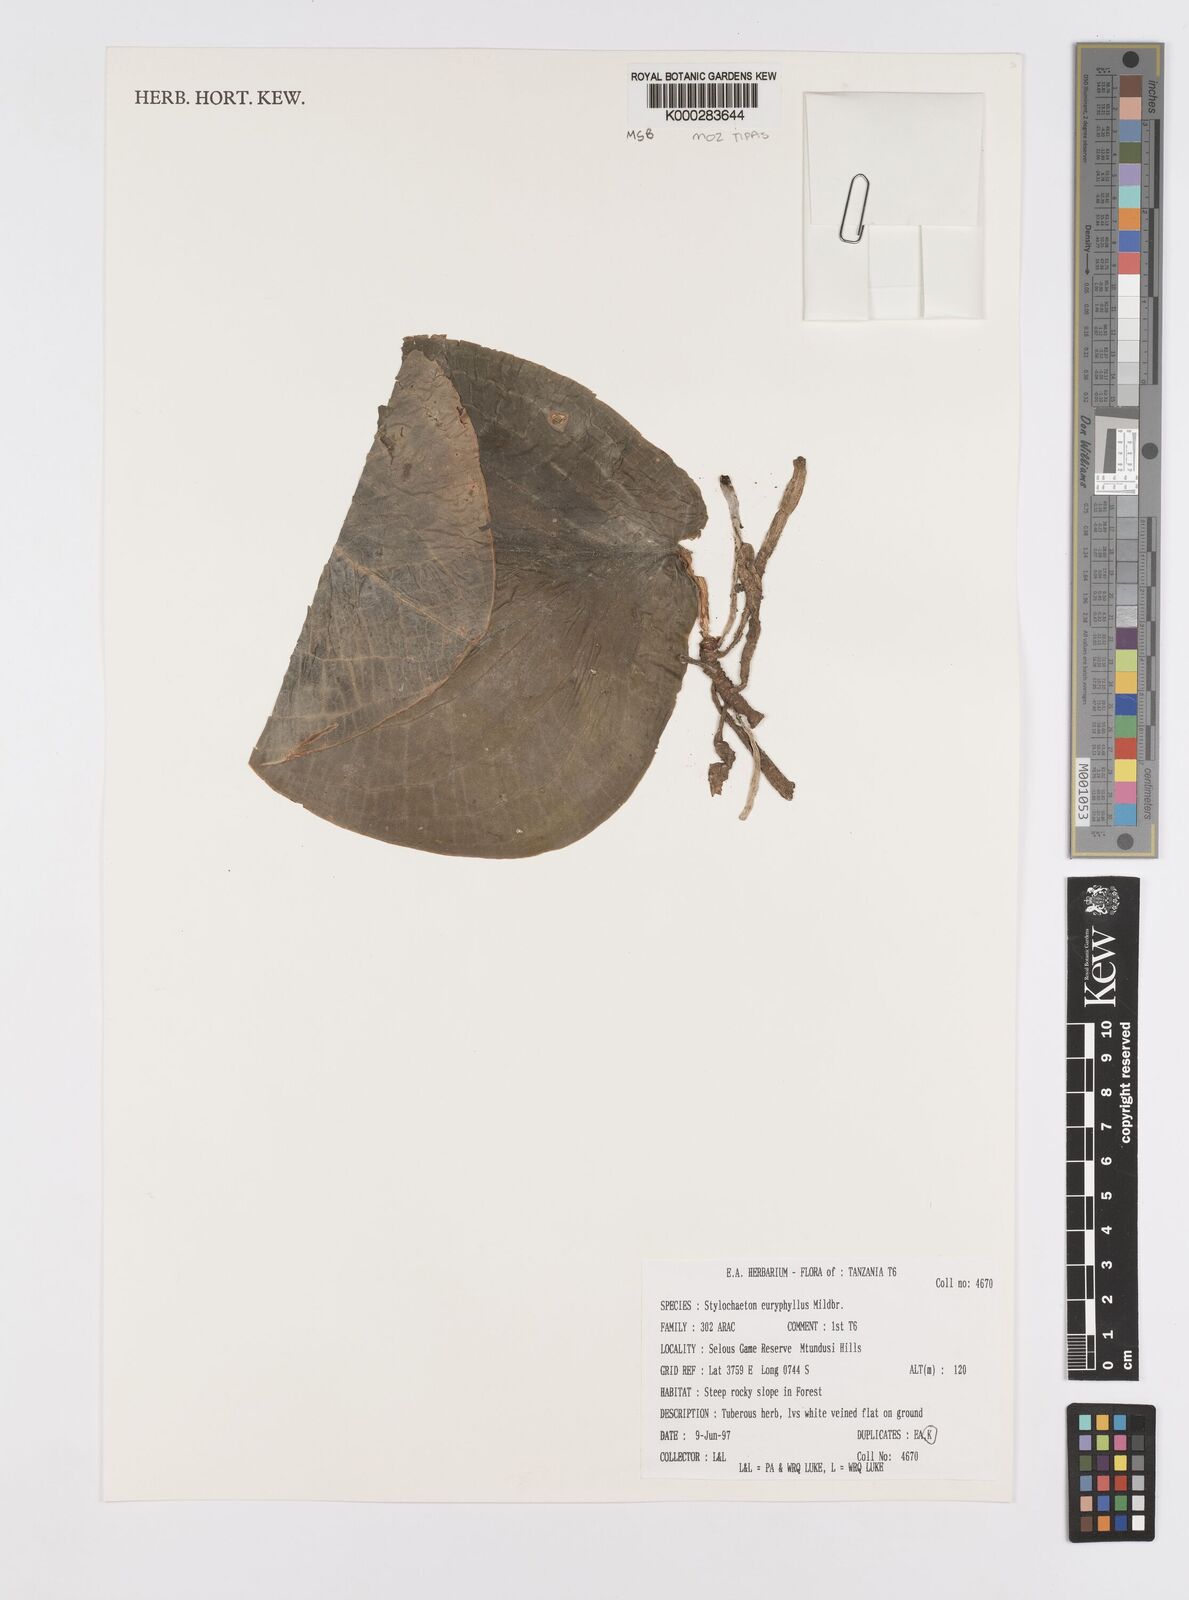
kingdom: Plantae
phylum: Tracheophyta
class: Liliopsida
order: Alismatales
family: Araceae
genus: Stylochaeton
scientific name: Stylochaeton euryphyllum
